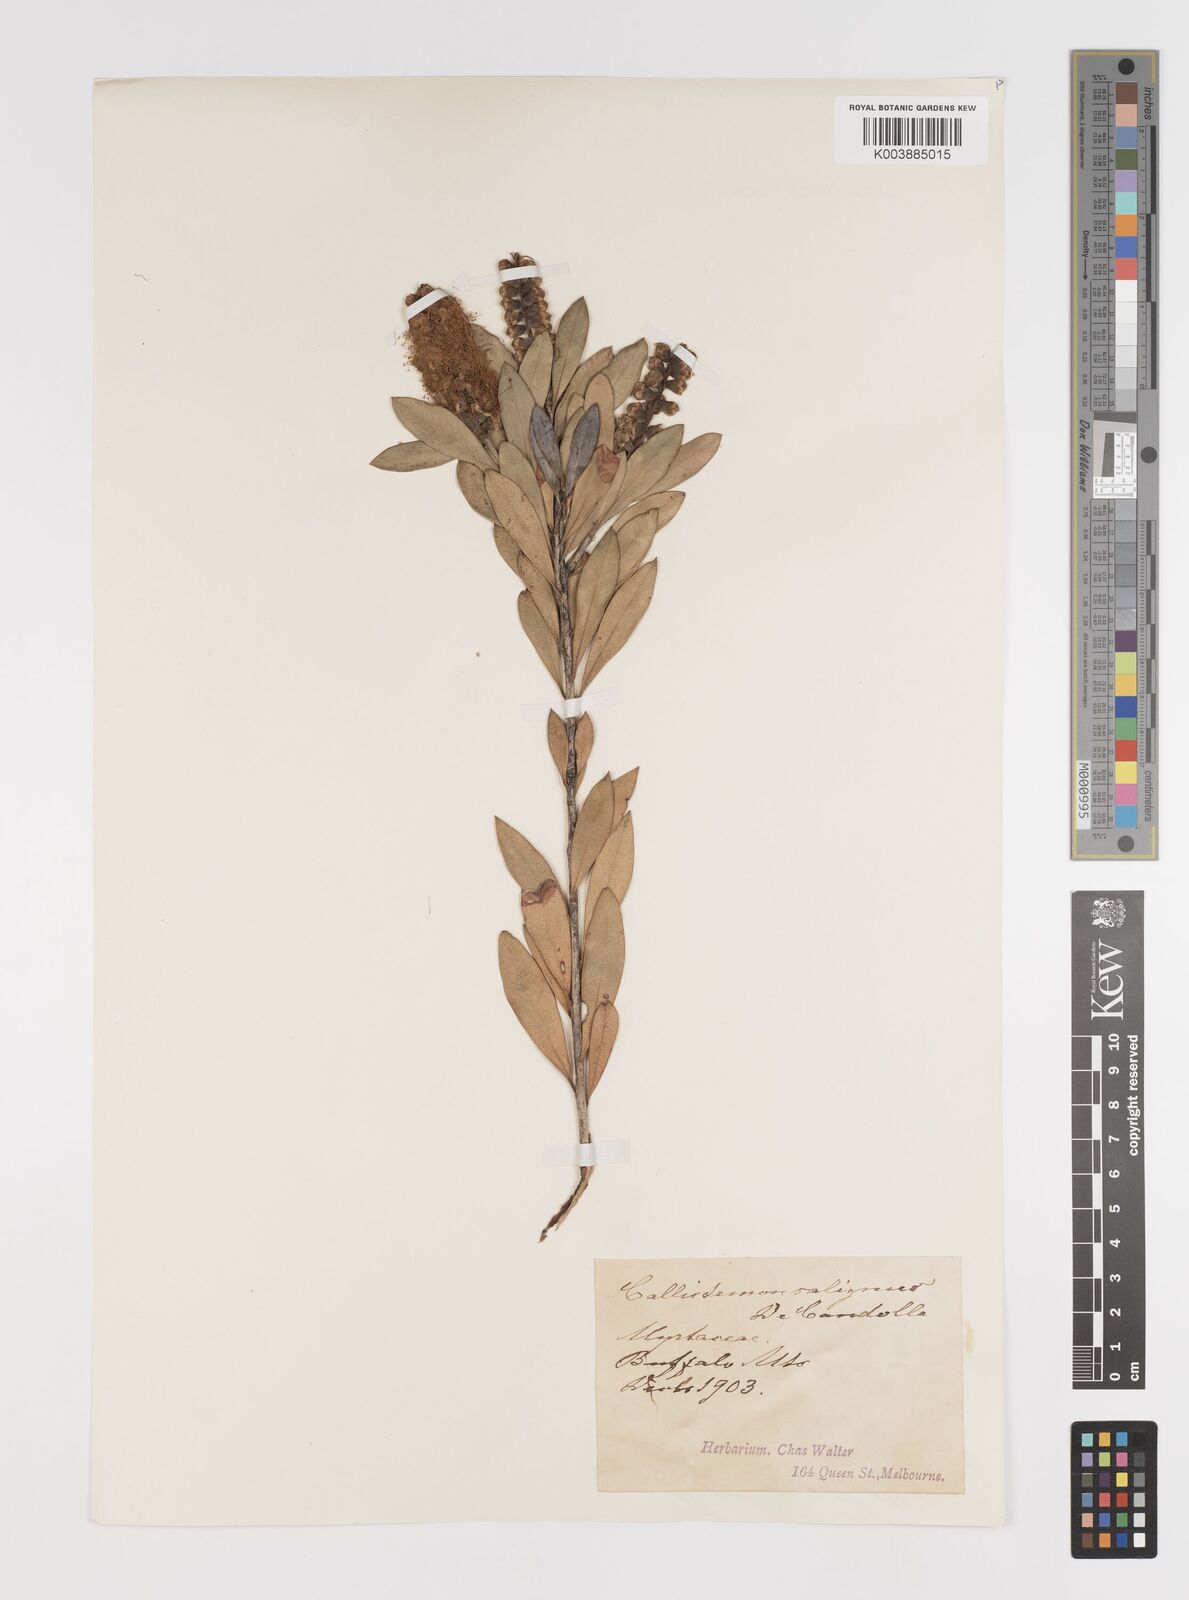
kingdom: Plantae
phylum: Tracheophyta
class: Magnoliopsida
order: Myrtales
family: Myrtaceae
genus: Melaleuca
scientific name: Melaleuca pallida
